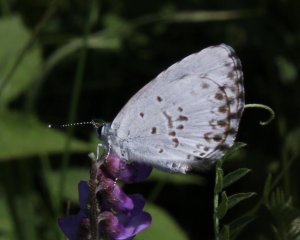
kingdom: Animalia
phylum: Arthropoda
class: Insecta
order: Lepidoptera
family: Lycaenidae
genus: Cyaniris
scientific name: Cyaniris neglecta
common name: Summer Azure
